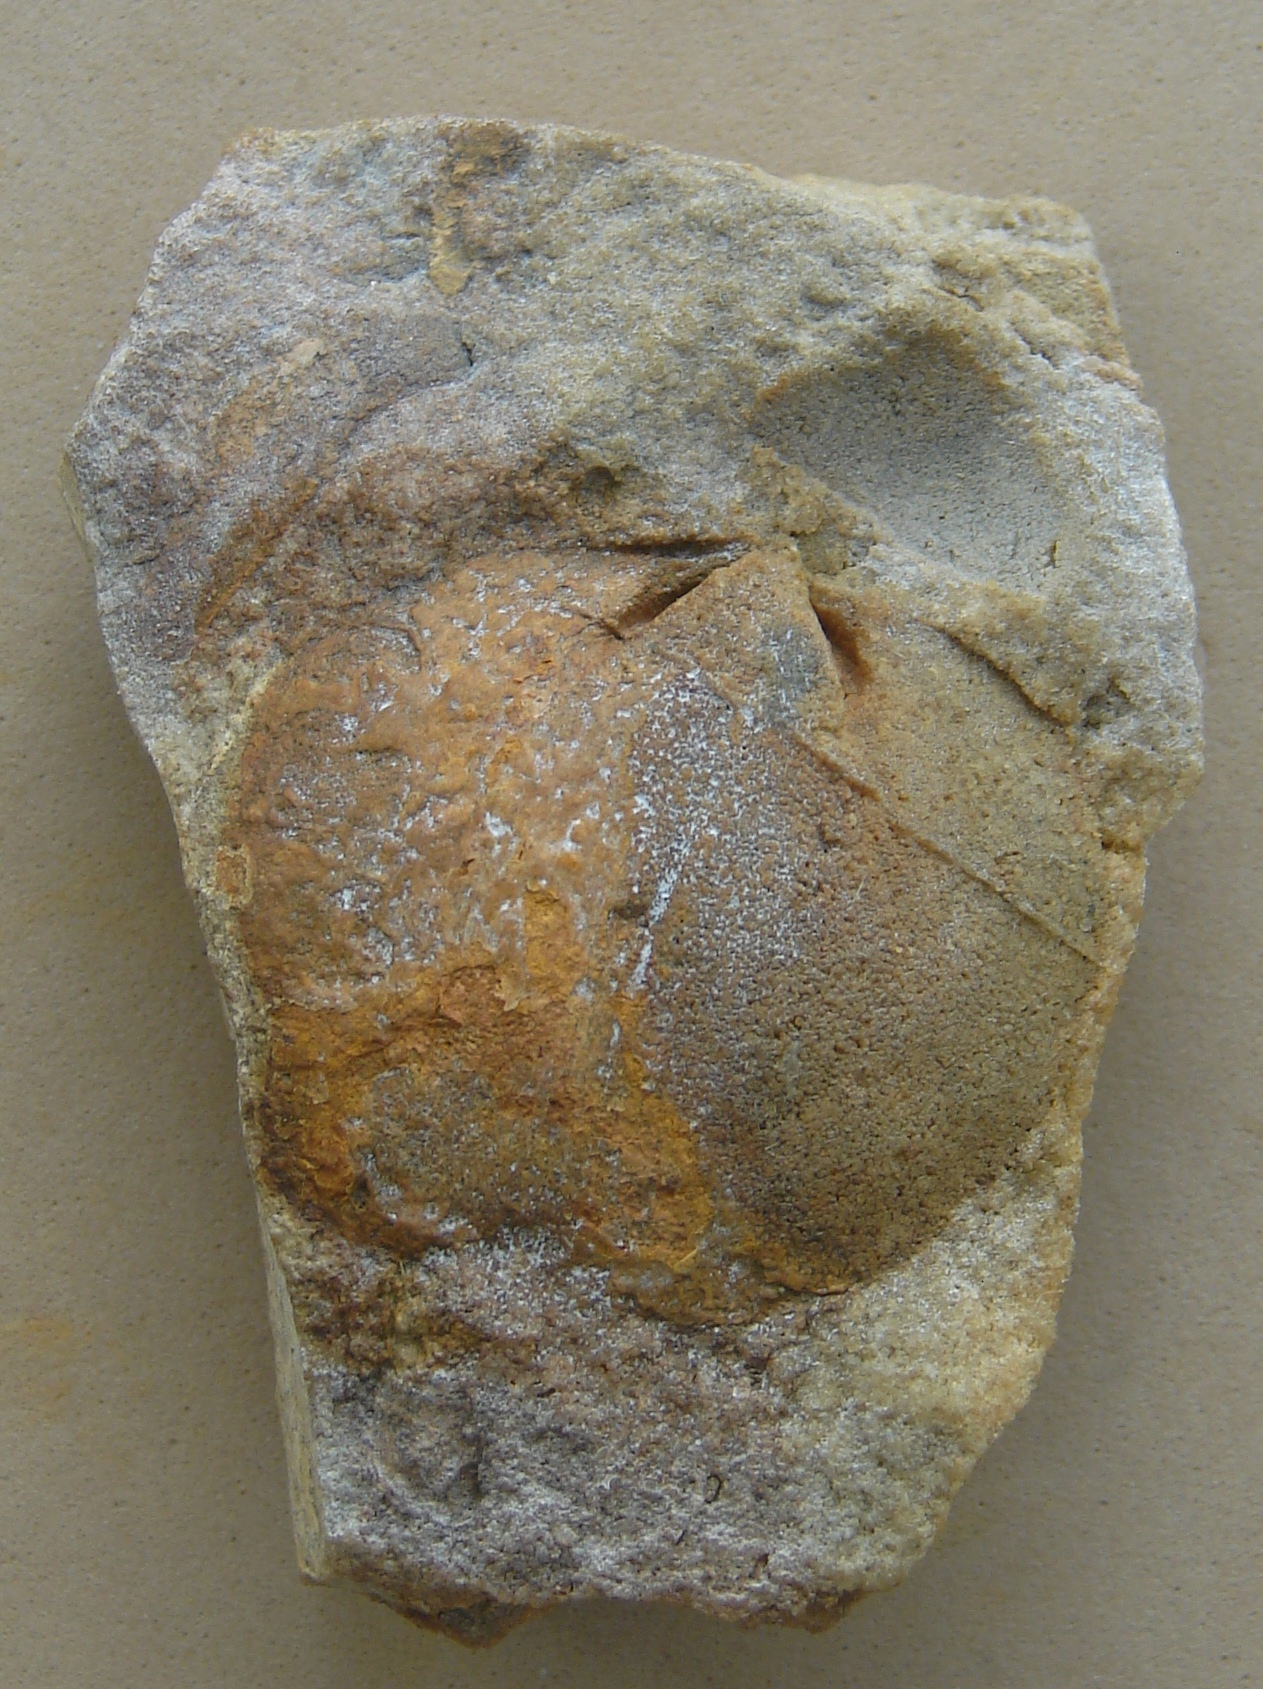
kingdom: Animalia
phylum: Brachiopoda
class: Rhynchonellata
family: Rhipidomellidae
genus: Platyorthis
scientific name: Platyorthis
